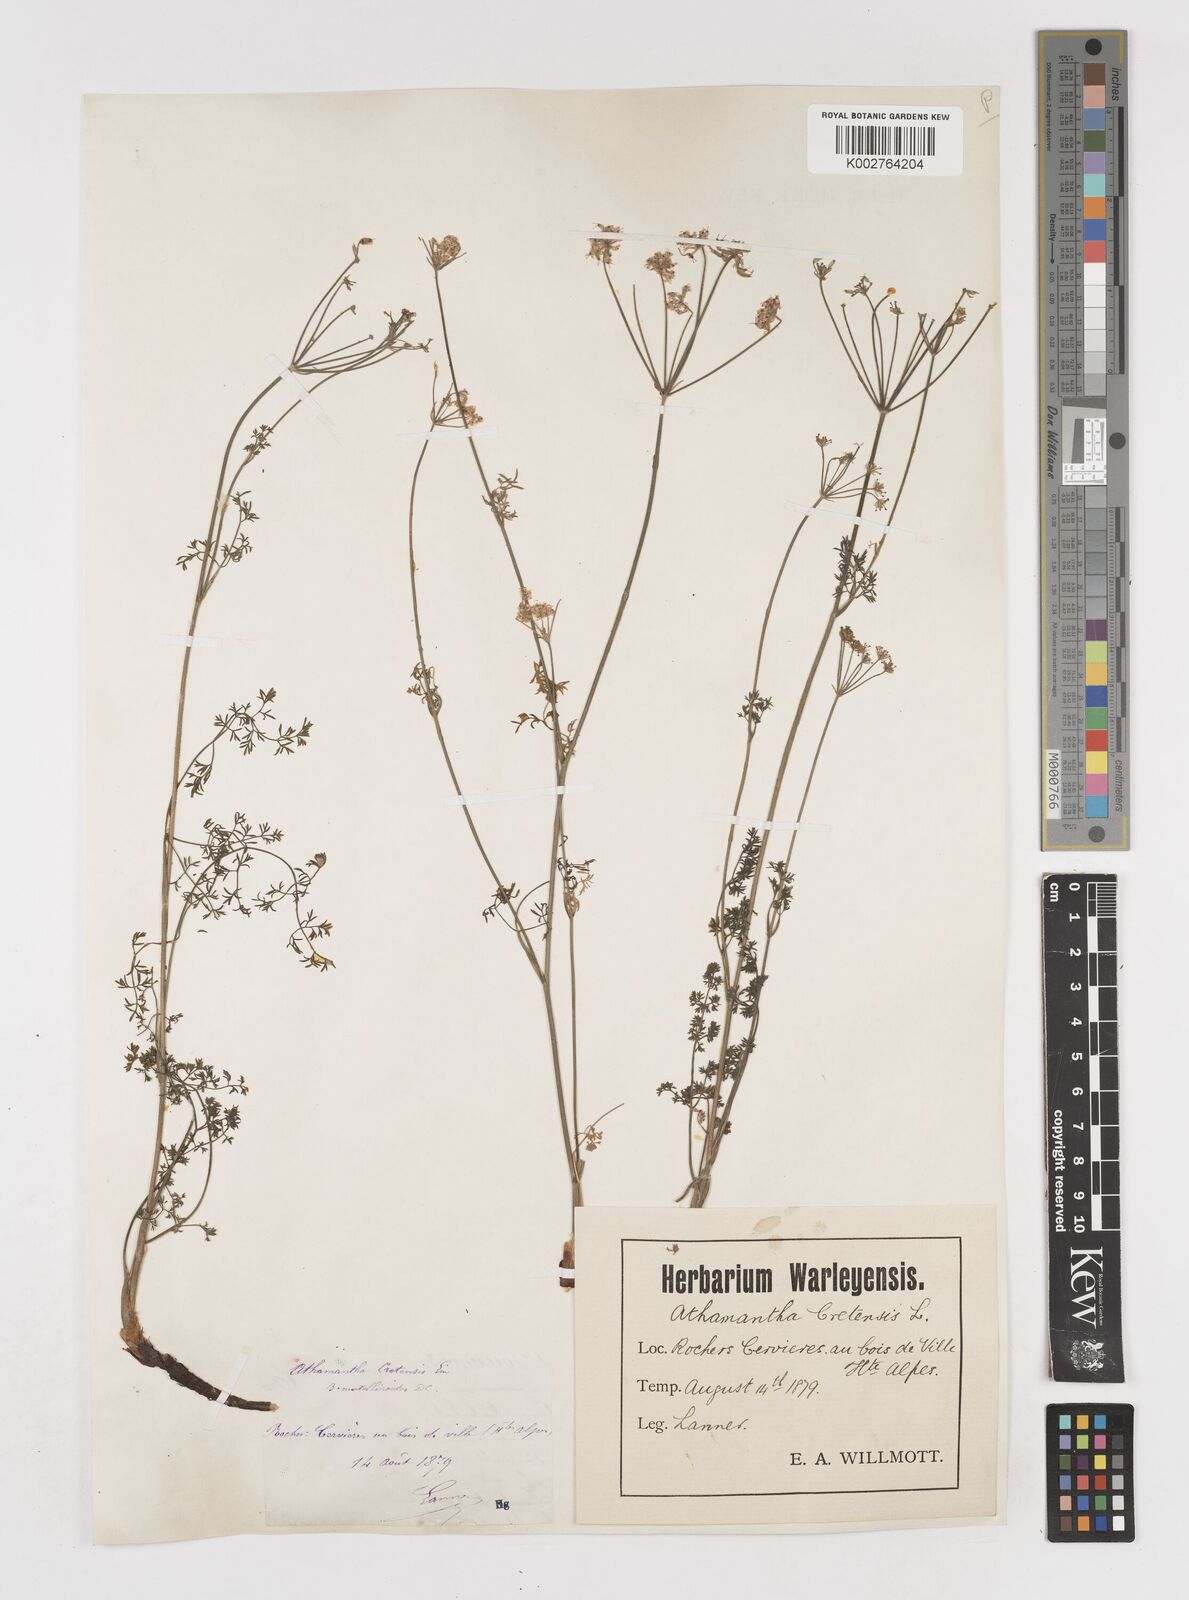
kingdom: Plantae
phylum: Tracheophyta
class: Magnoliopsida
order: Apiales
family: Apiaceae
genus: Athamanta
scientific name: Athamanta cretensis
